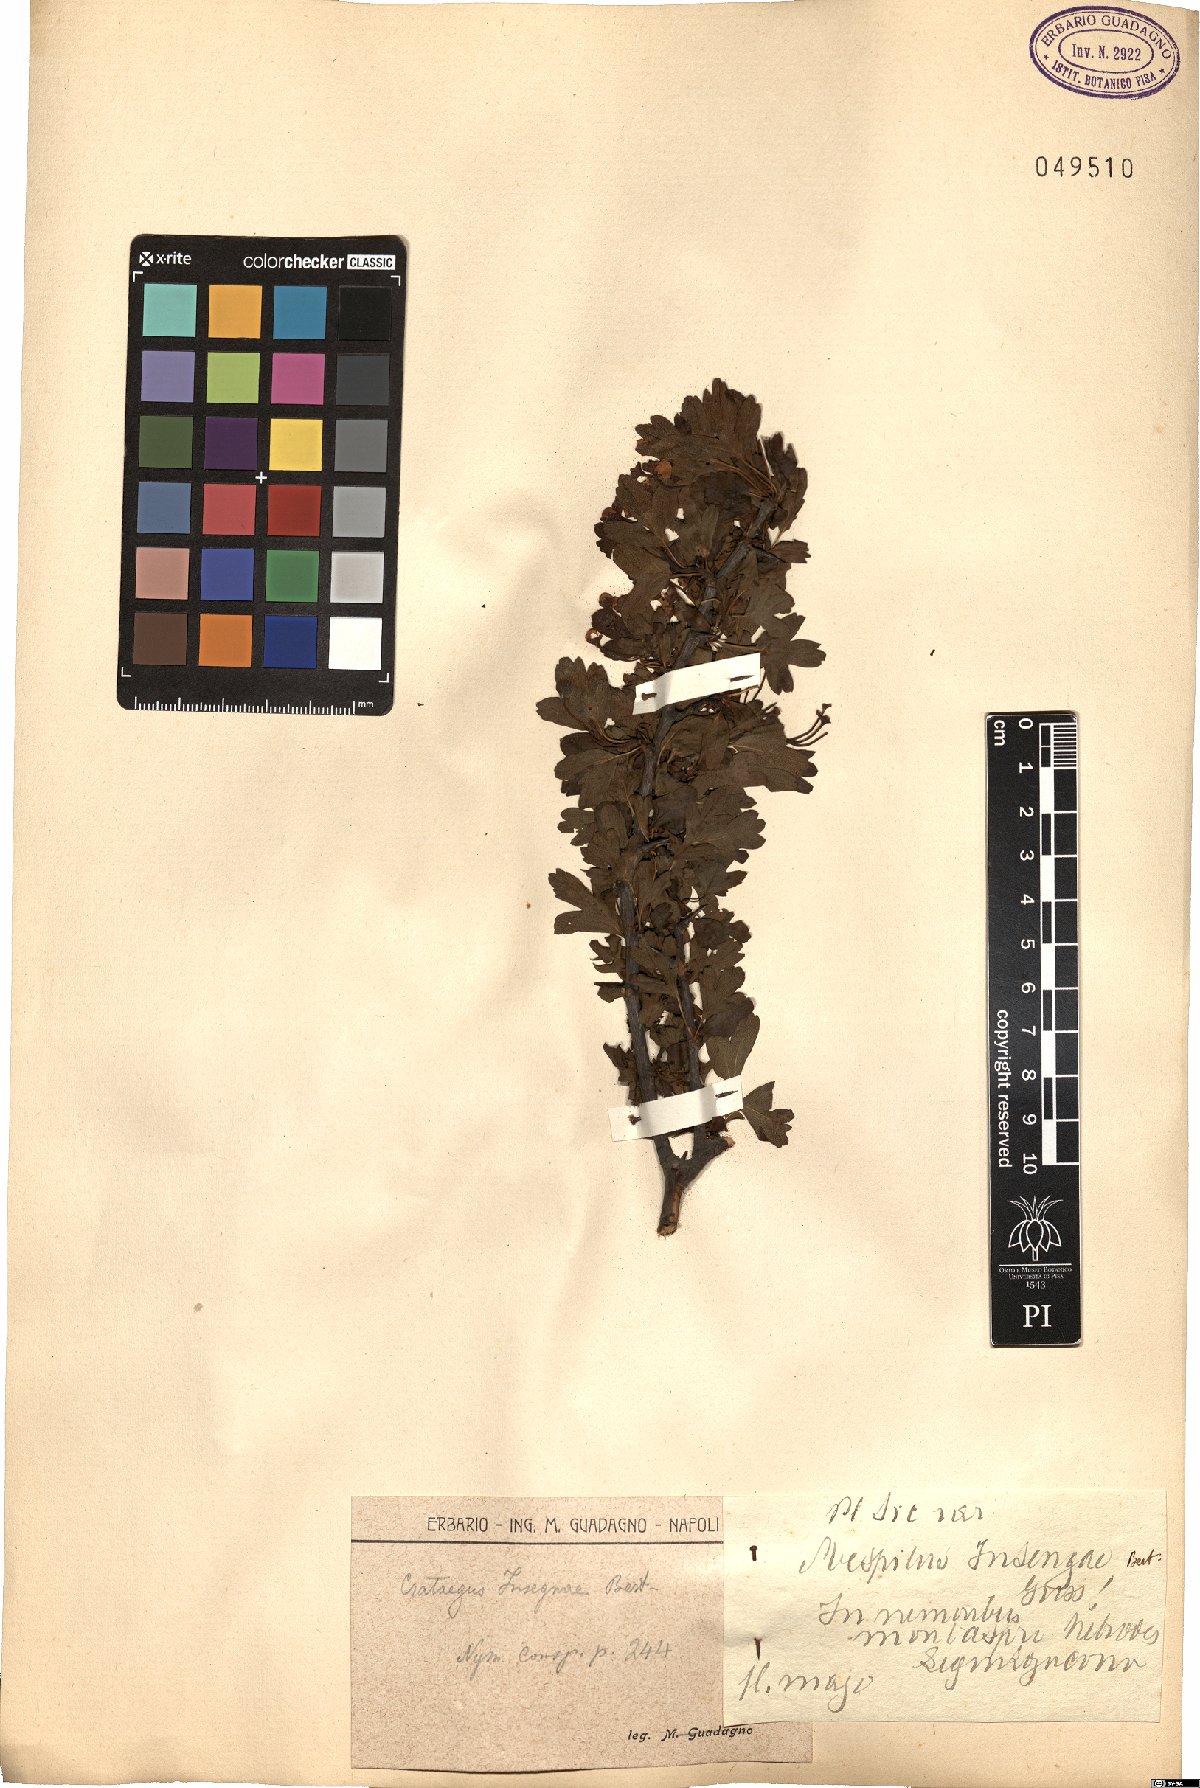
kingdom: Plantae
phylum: Tracheophyta
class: Magnoliopsida
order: Rosales
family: Rosaceae
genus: Crataegus
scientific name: Crataegus monogyna
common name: Hawthorn
